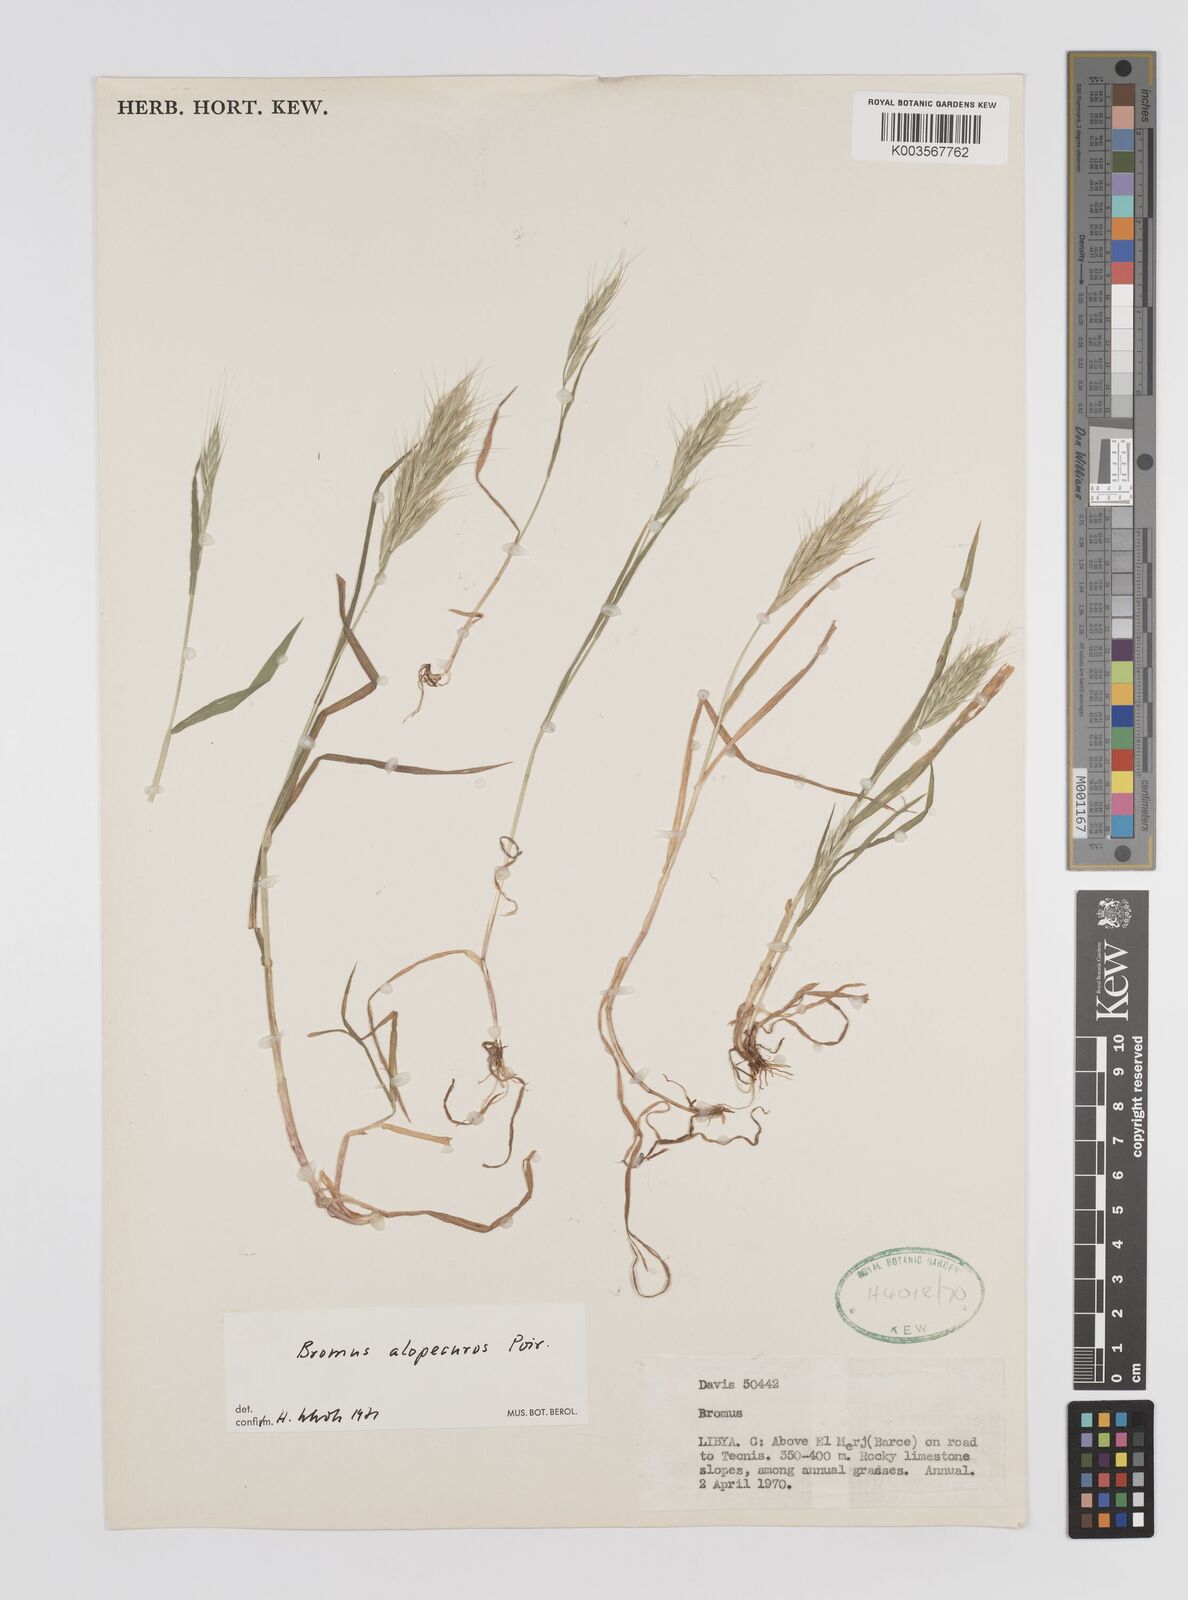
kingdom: Plantae
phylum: Tracheophyta
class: Liliopsida
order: Poales
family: Poaceae
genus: Bromus
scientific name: Bromus alopecuros
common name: Weedy brome
